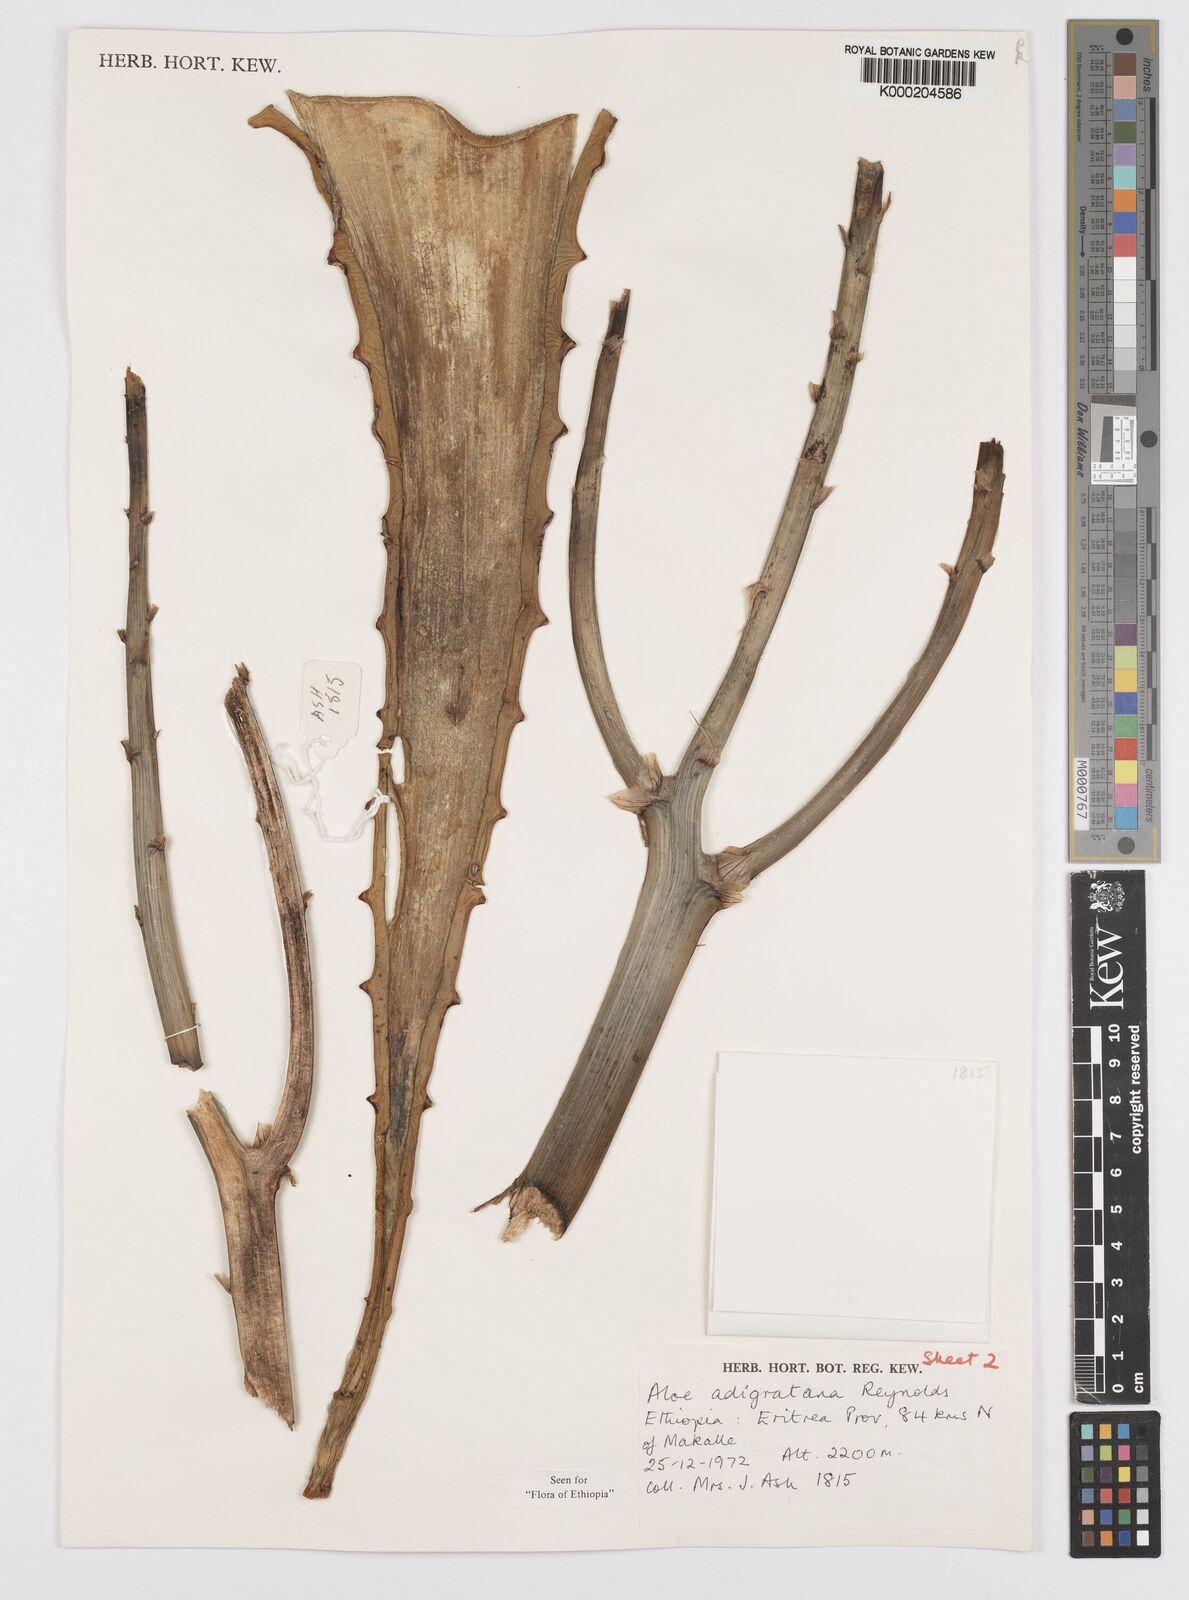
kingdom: Plantae
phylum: Tracheophyta
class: Liliopsida
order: Asparagales
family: Asphodelaceae
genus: Aloe
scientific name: Aloe adigratana
